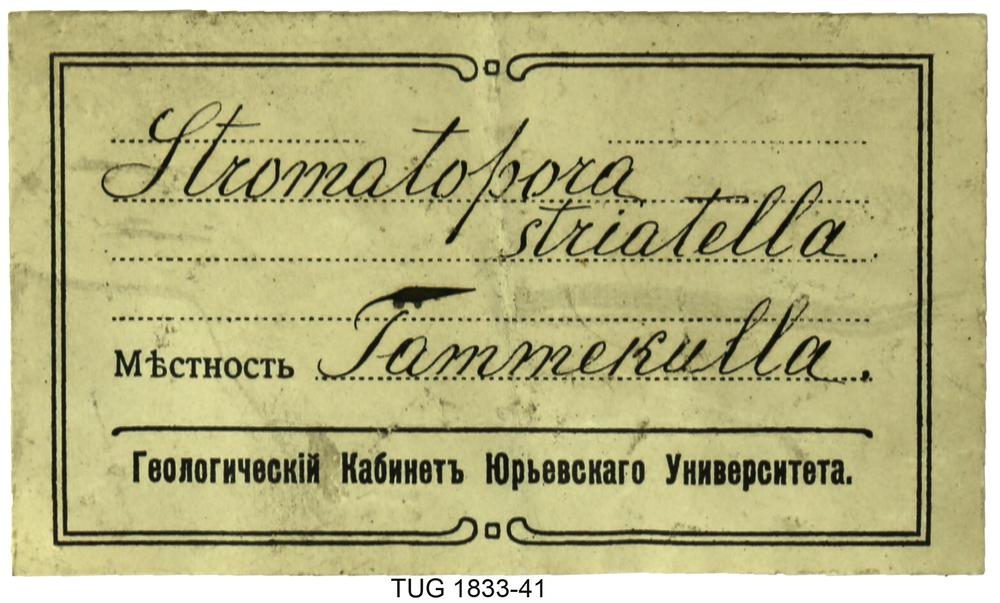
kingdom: Animalia
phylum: Porifera
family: Stromatoporidae
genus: Stromatopora
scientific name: Stromatopora
